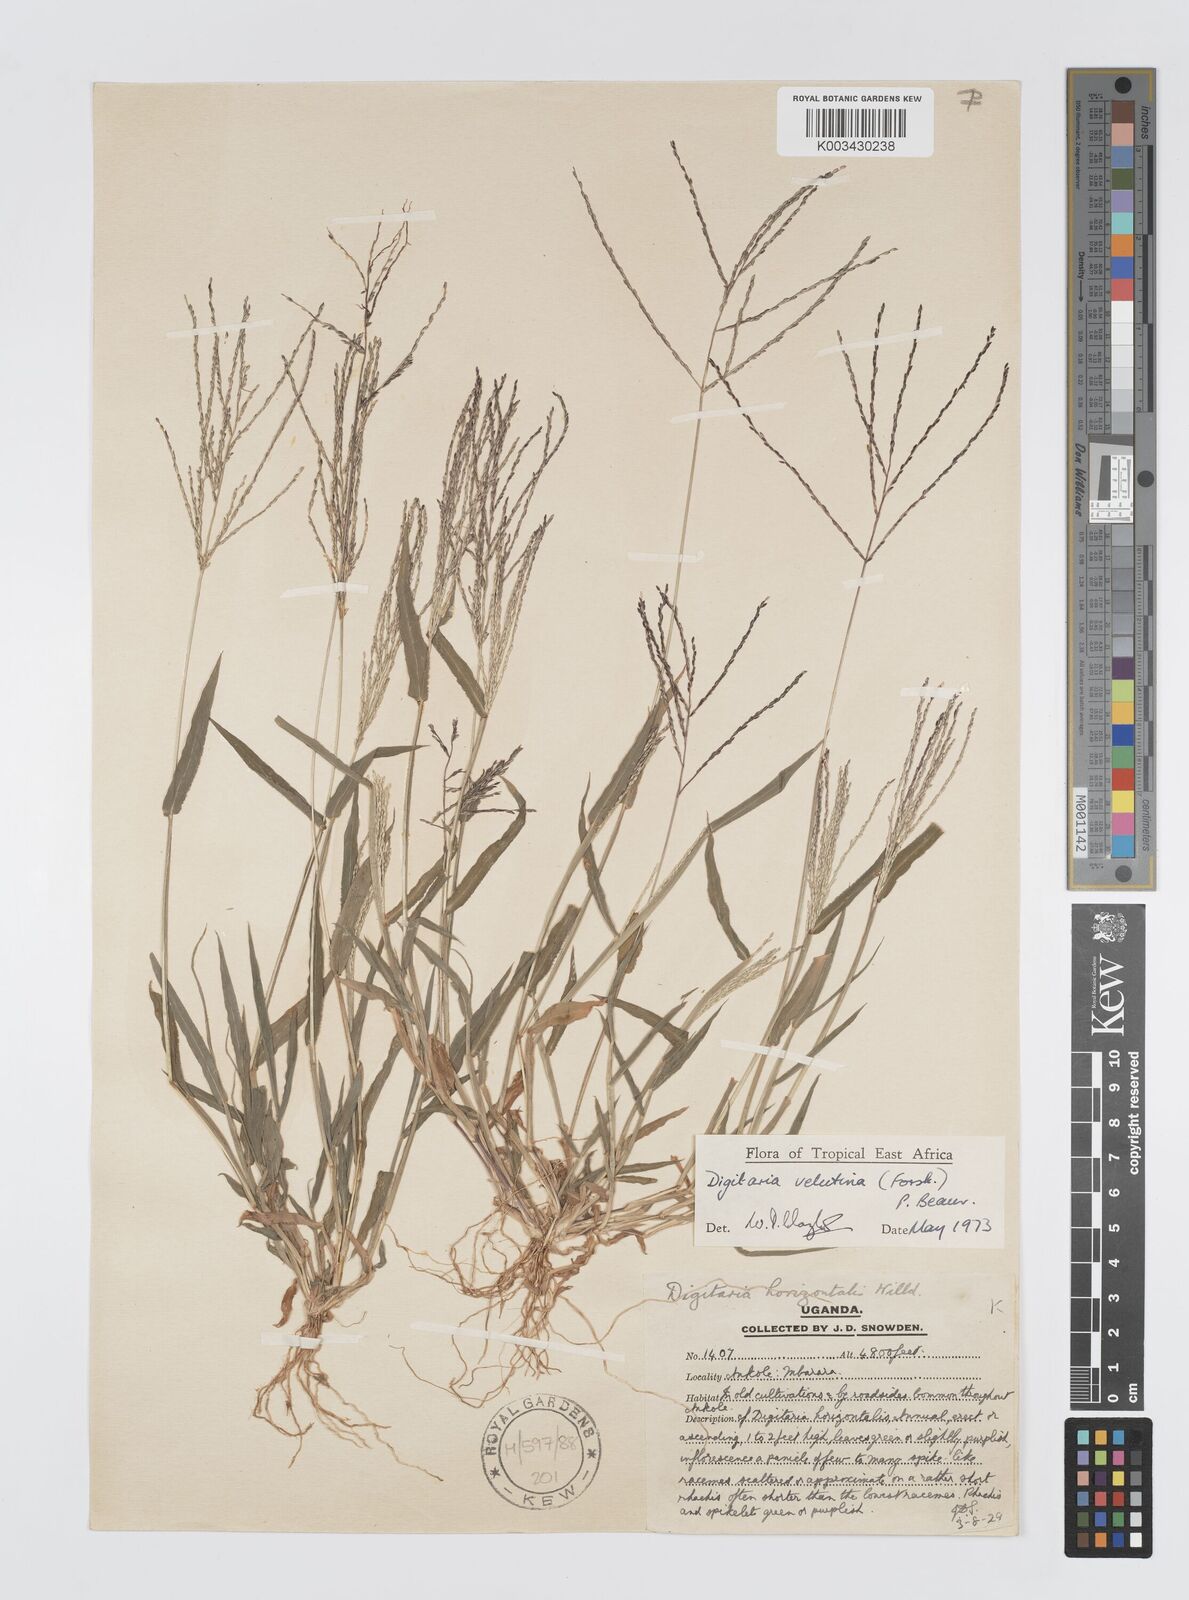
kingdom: Plantae
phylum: Tracheophyta
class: Liliopsida
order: Poales
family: Poaceae
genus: Digitaria
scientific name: Digitaria velutina
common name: Long-plume finger grass
